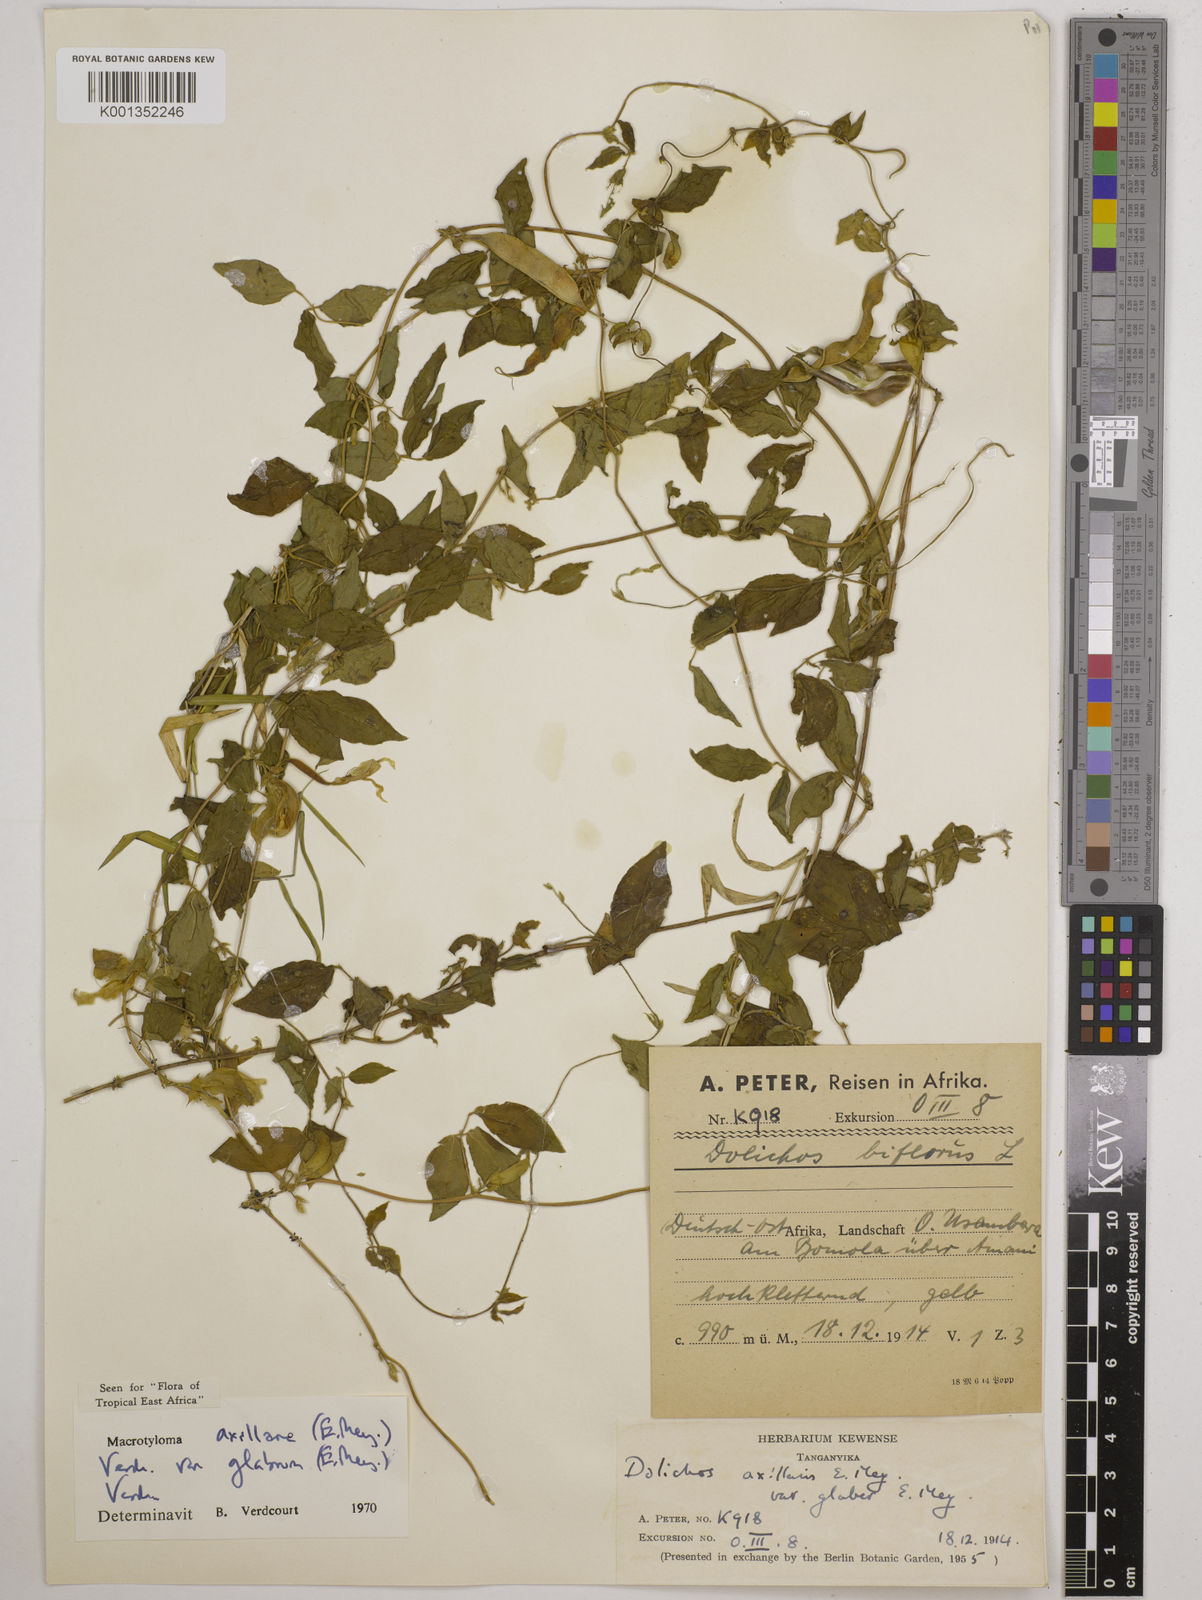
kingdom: Plantae
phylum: Tracheophyta
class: Magnoliopsida
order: Fabales
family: Fabaceae
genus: Macrotyloma
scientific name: Macrotyloma
